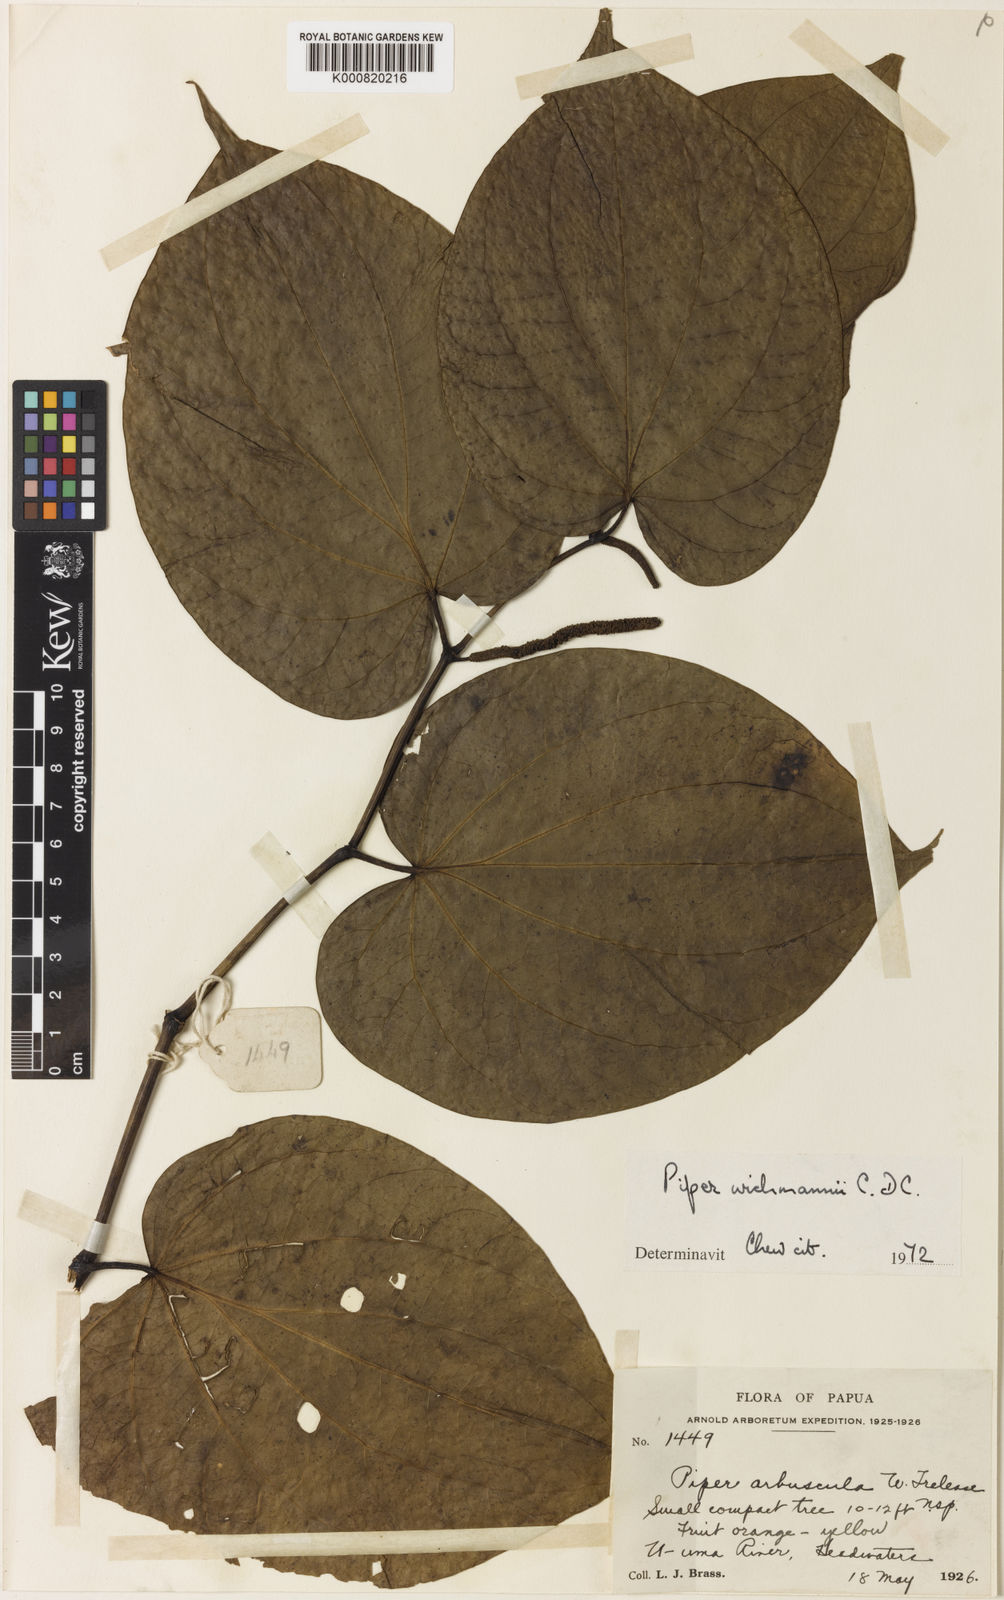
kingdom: Plantae
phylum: Tracheophyta
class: Magnoliopsida
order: Piperales
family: Piperaceae
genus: Macropiper
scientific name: Macropiper methysticum
